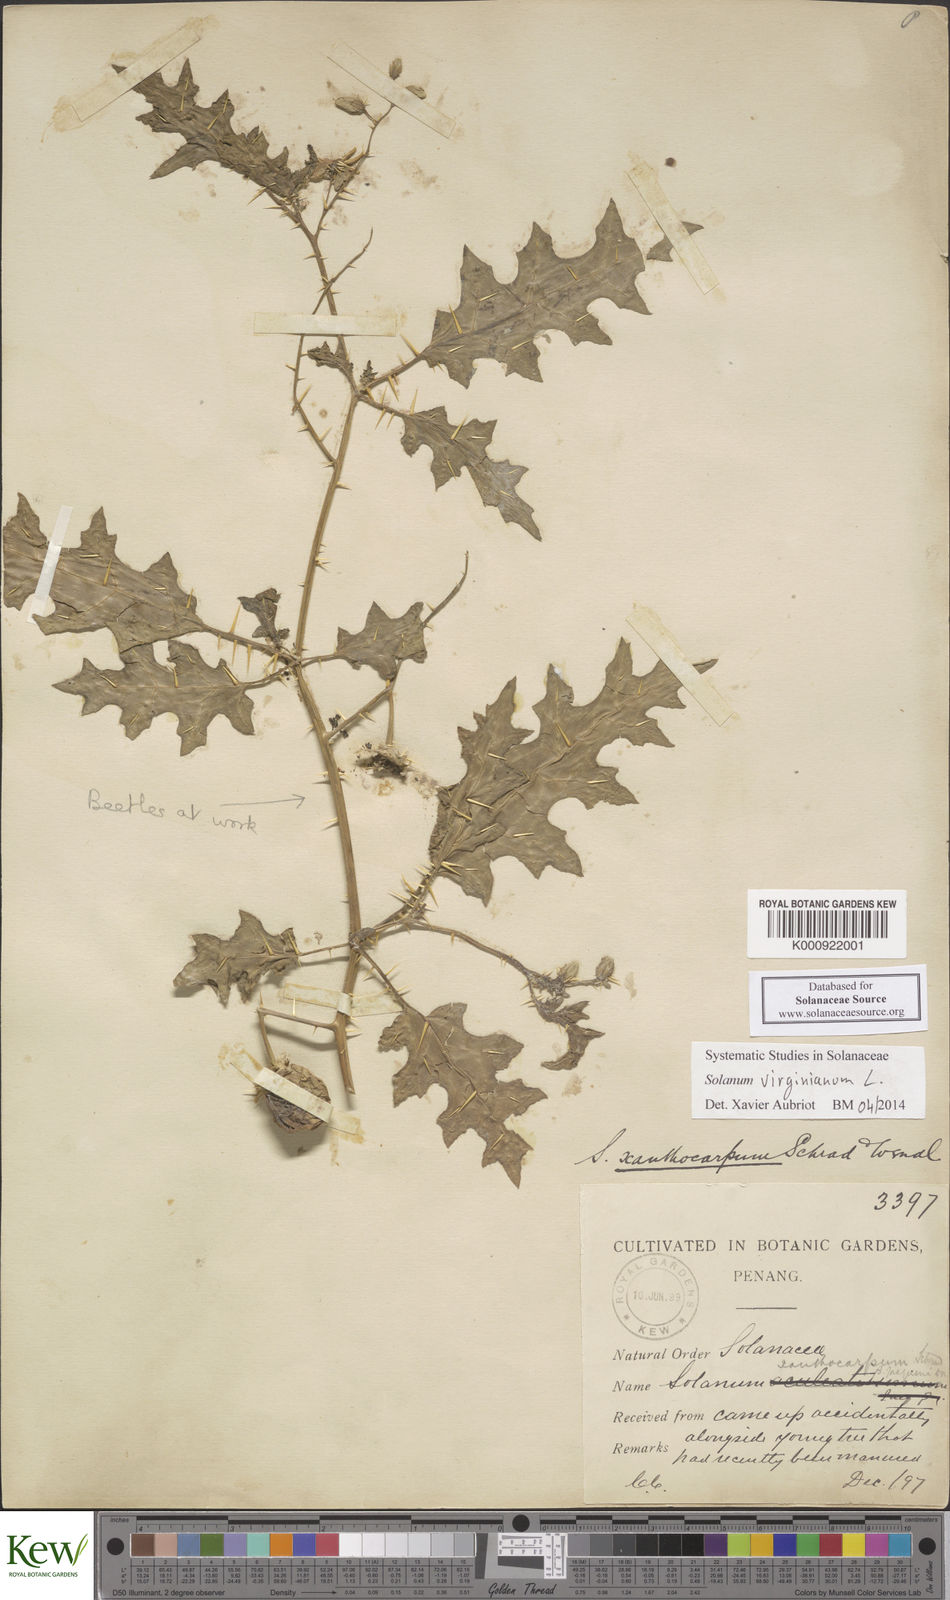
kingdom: Plantae
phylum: Tracheophyta
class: Magnoliopsida
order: Solanales
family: Solanaceae
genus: Solanum
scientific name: Solanum virginianum
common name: Surattense nightshade
